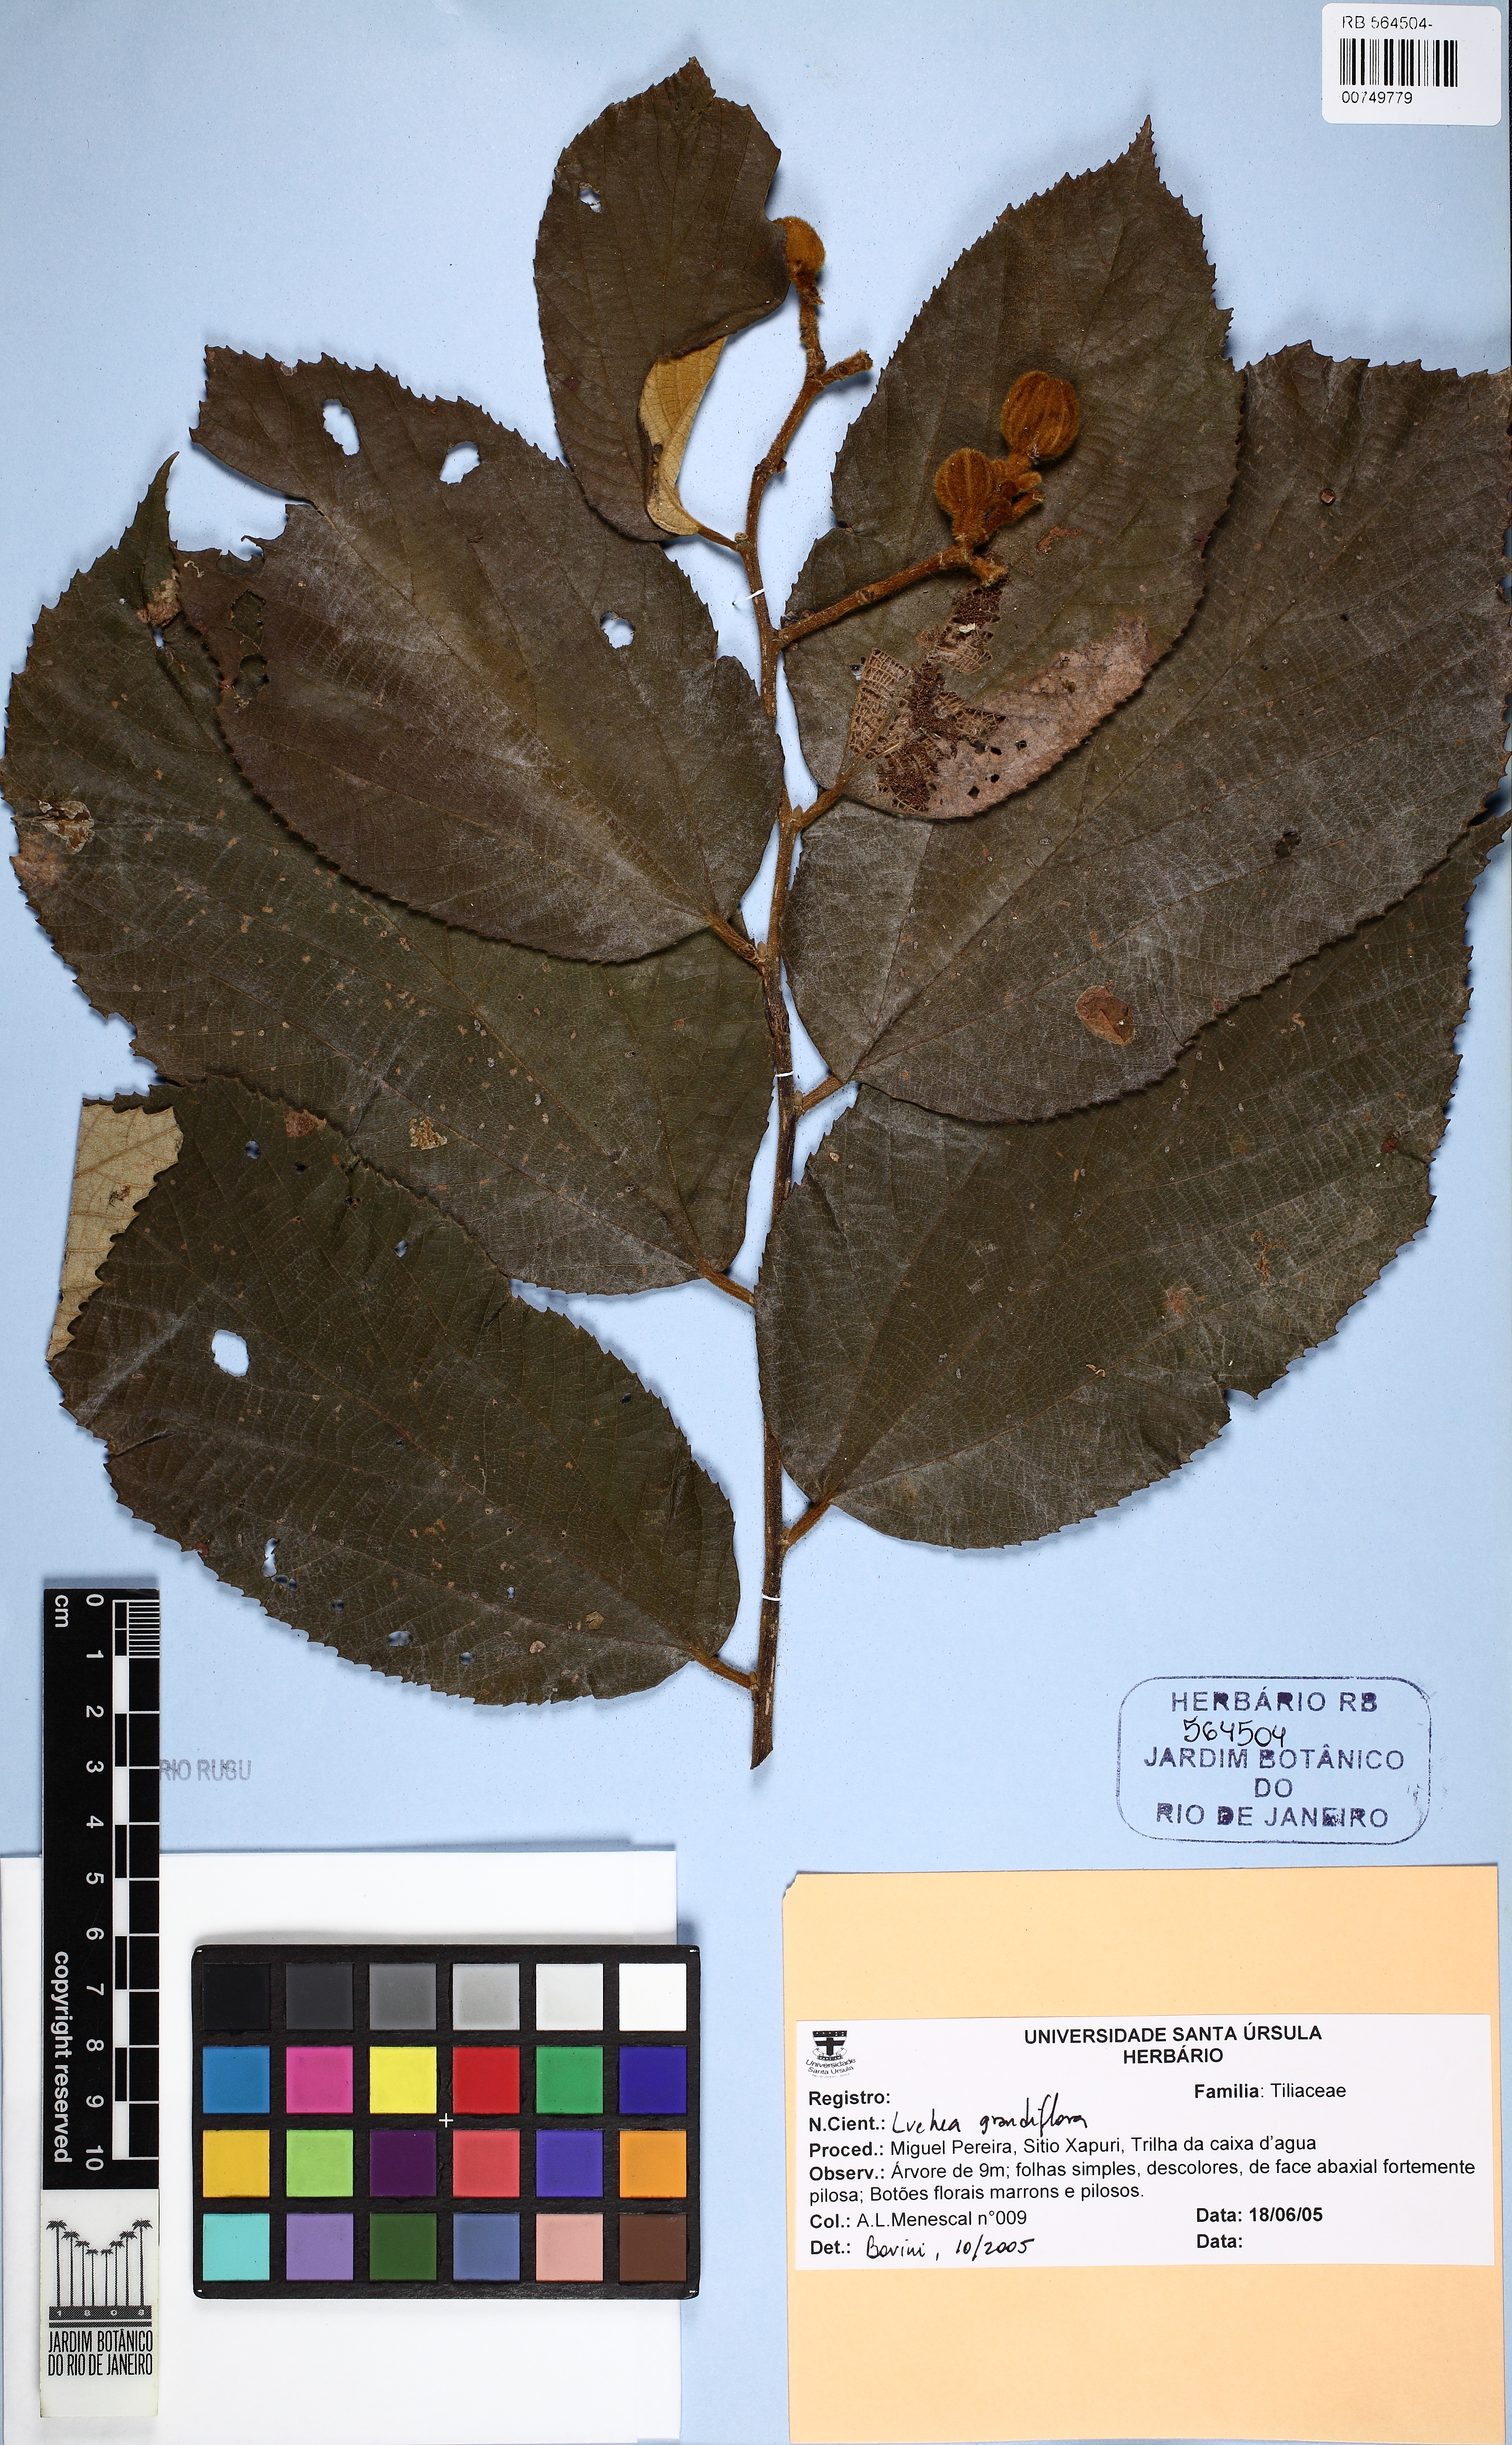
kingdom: Plantae
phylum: Tracheophyta
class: Magnoliopsida
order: Malvales
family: Malvaceae
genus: Luehea
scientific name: Luehea grandiflora
